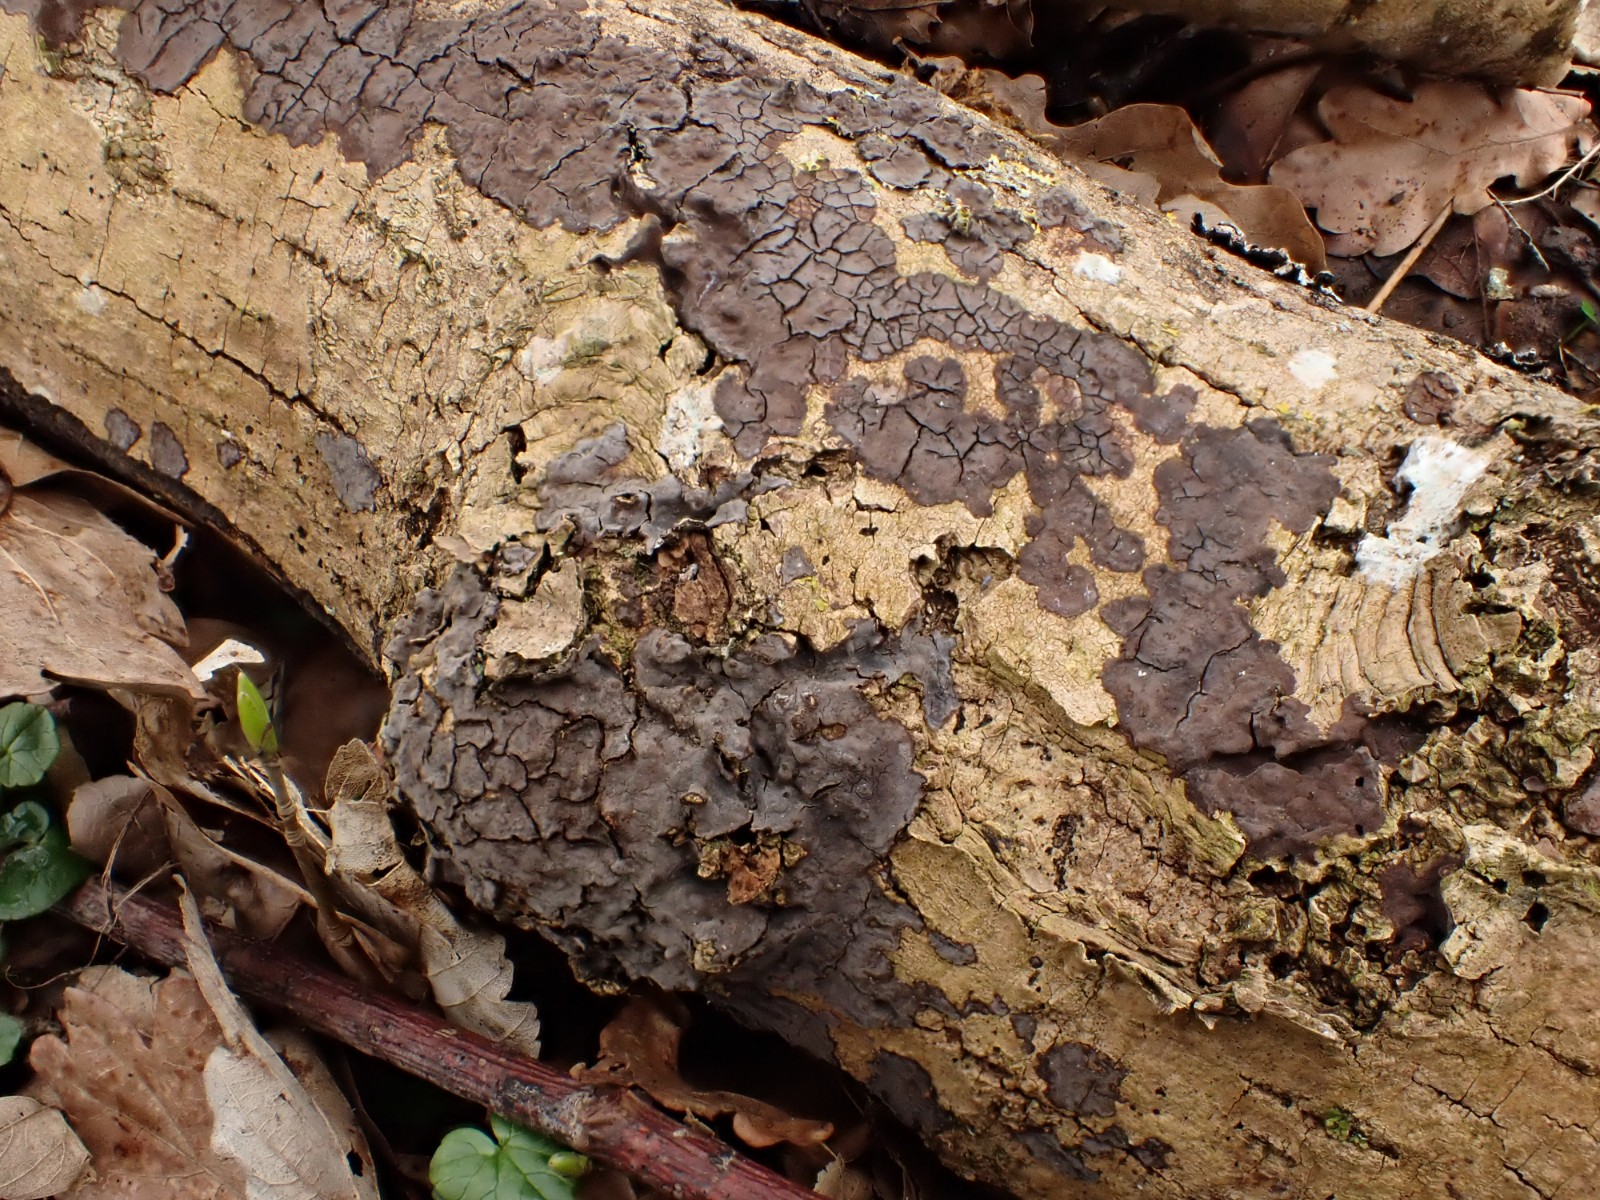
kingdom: Fungi
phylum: Basidiomycota
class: Agaricomycetes
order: Russulales
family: Peniophoraceae
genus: Peniophora
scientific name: Peniophora limitata
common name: mørkrandet voksskind
